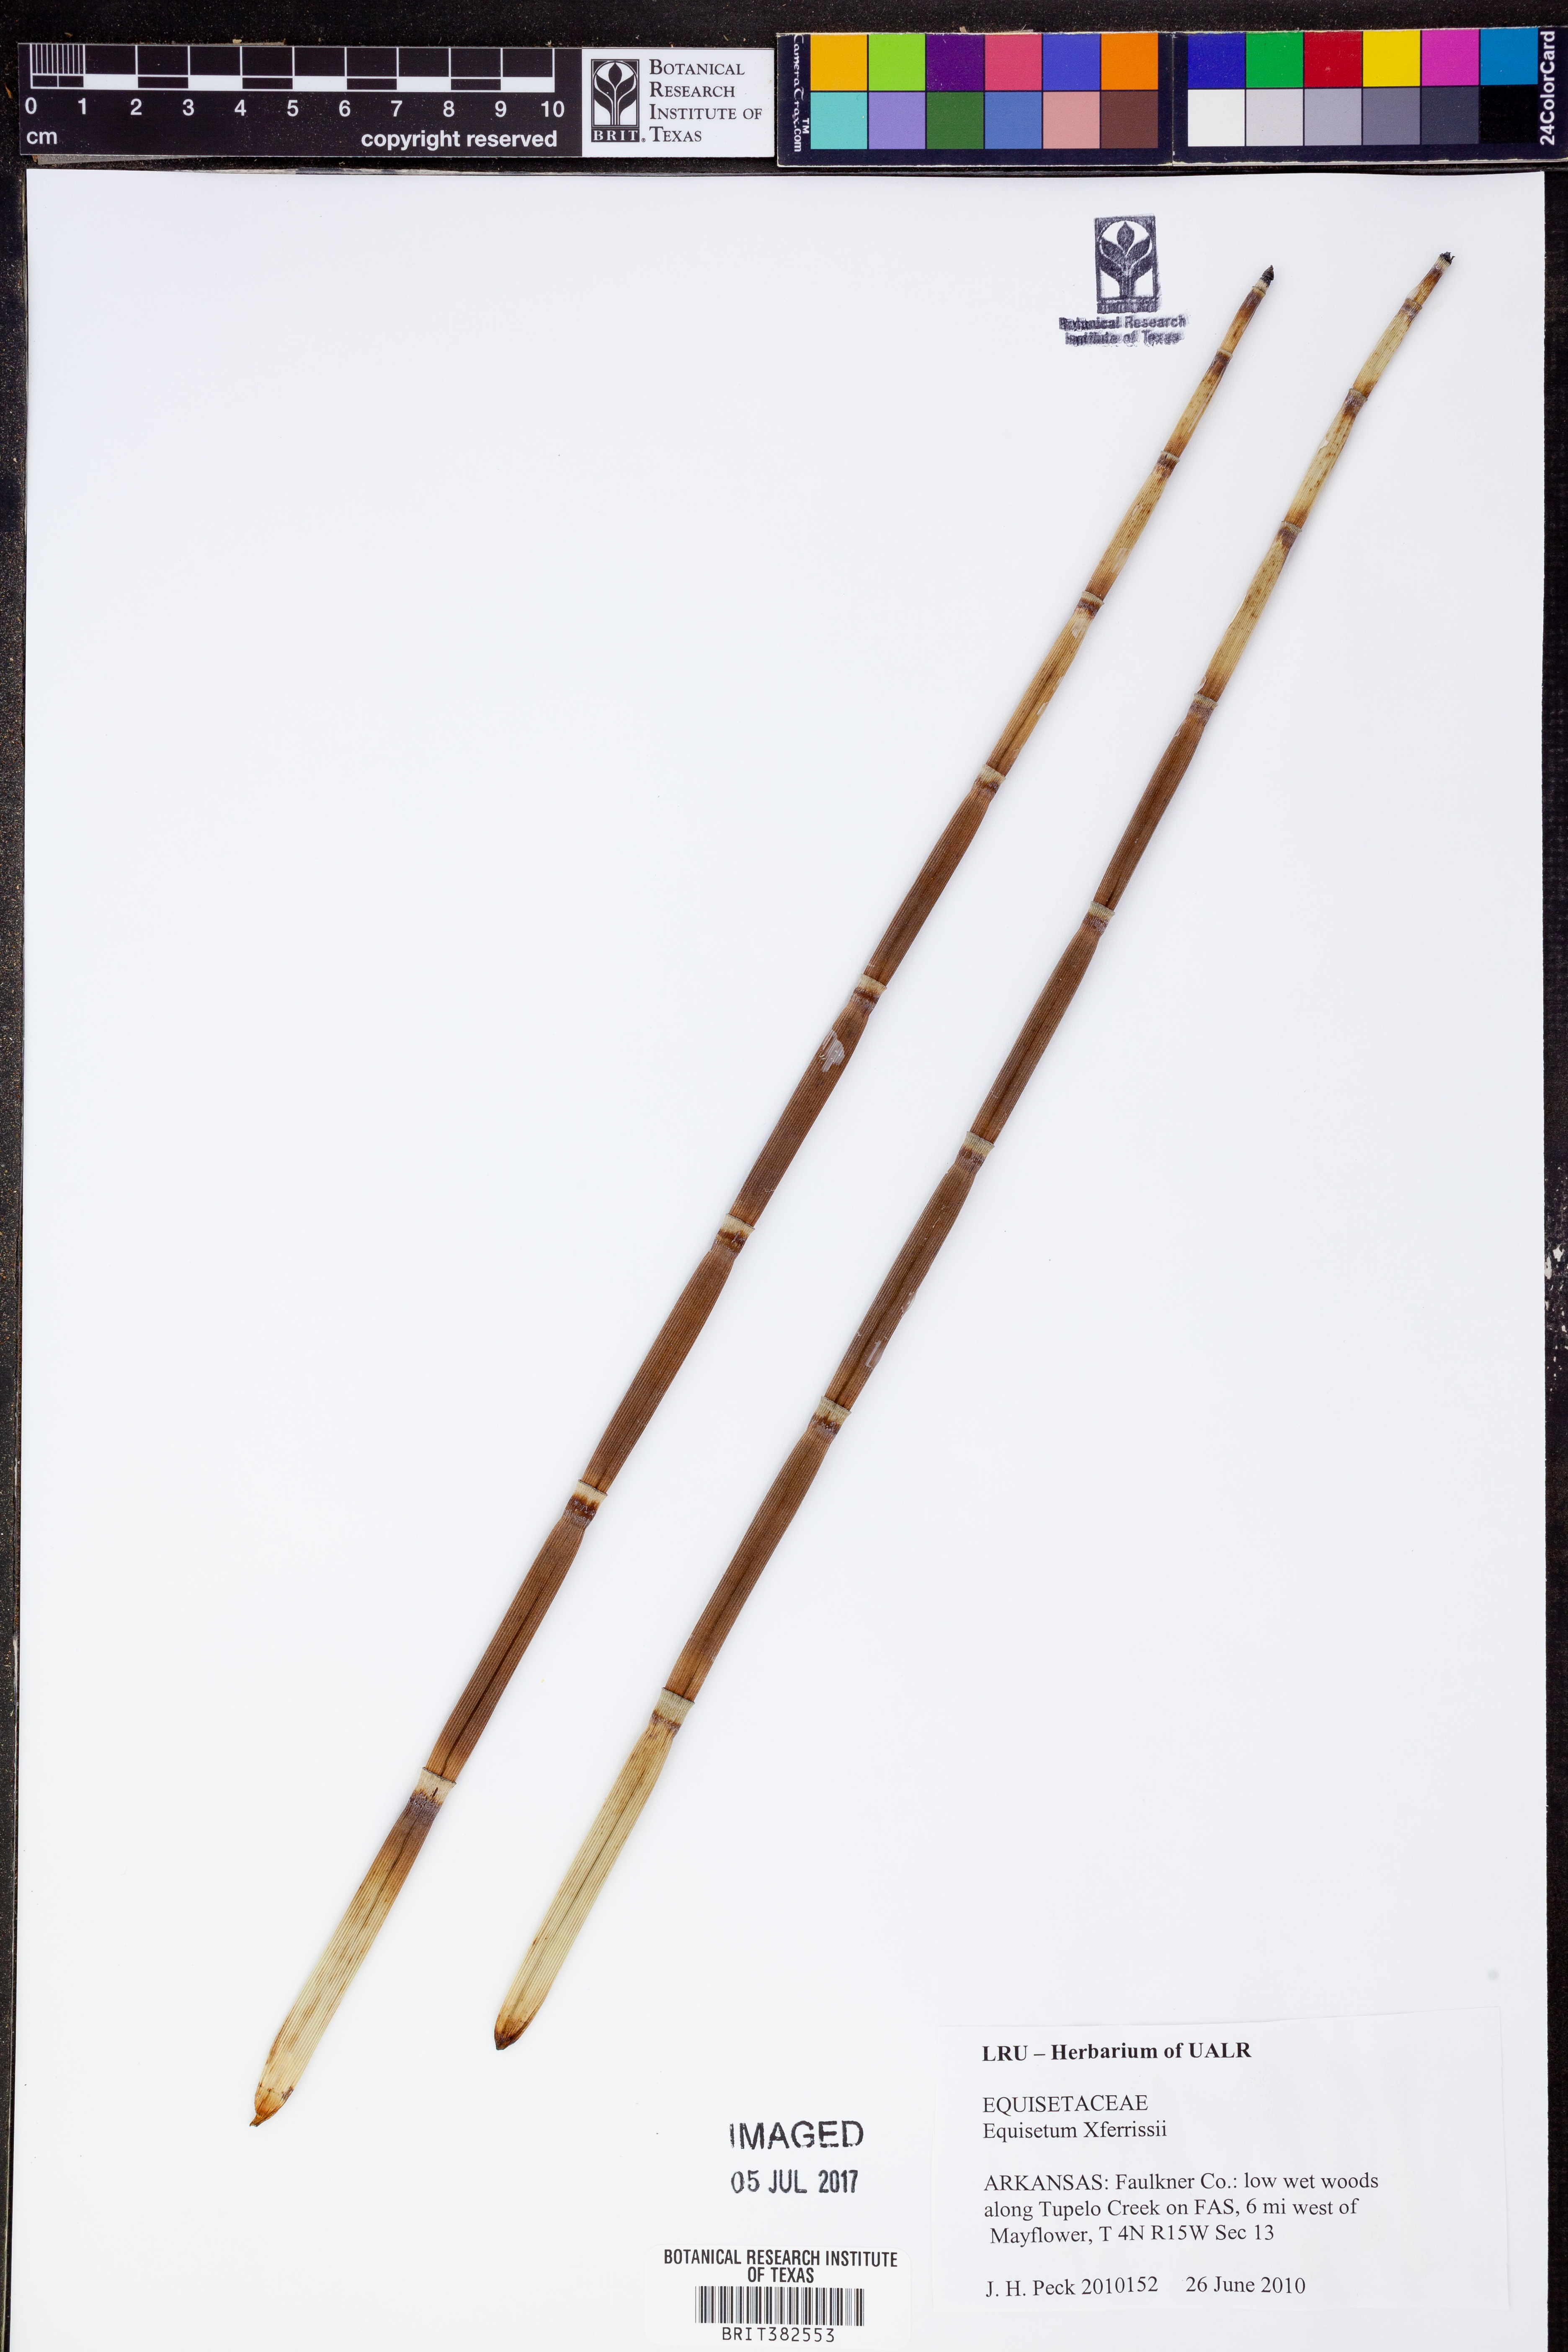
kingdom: Plantae
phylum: Tracheophyta
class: Polypodiopsida
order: Equisetales
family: Equisetaceae
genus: Equisetum
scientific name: Equisetum ferrissii
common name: Ferriss' horsetail
